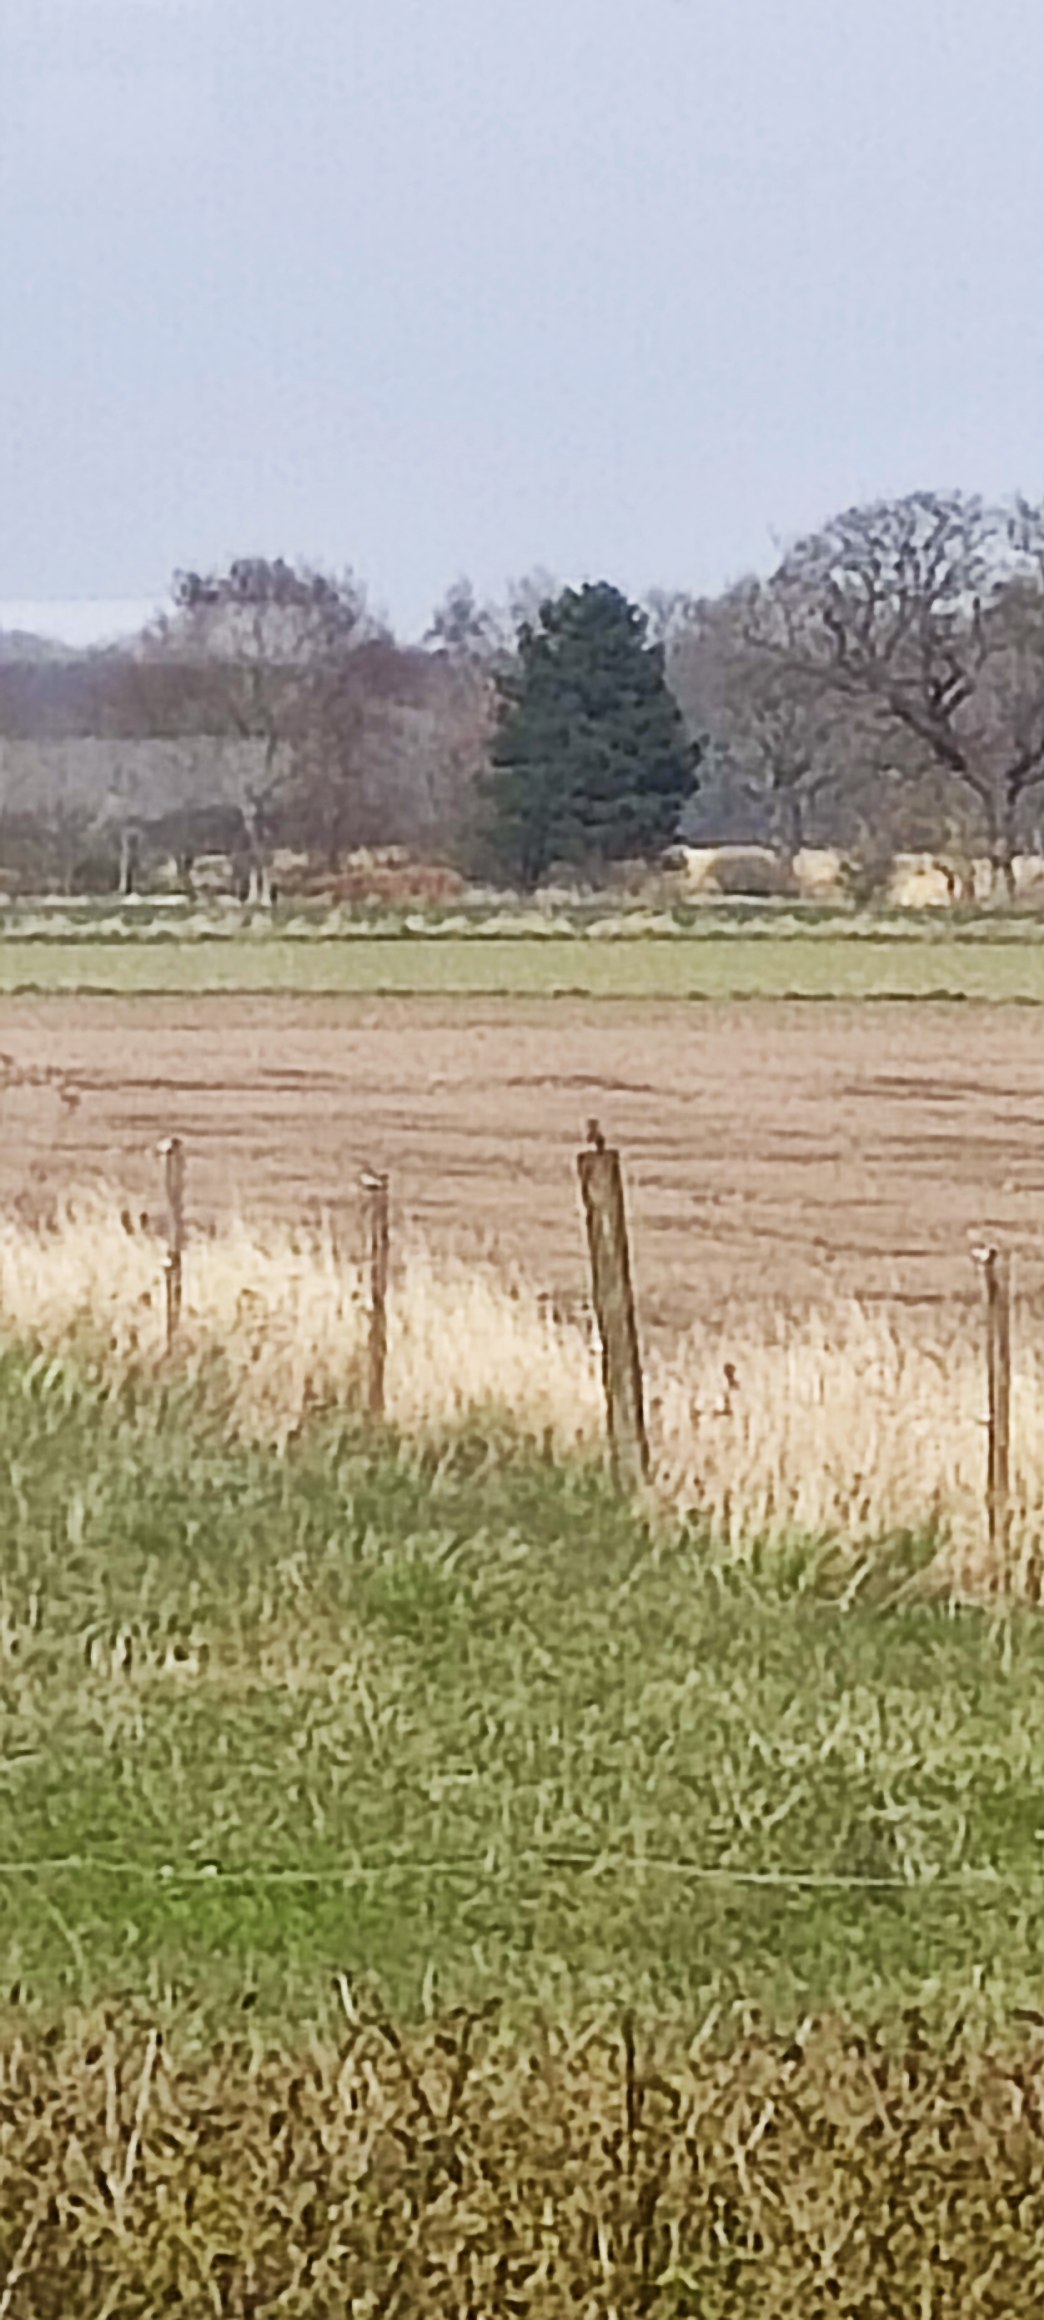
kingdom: Animalia
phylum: Chordata
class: Aves
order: Passeriformes
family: Muscicapidae
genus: Phoenicurus
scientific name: Phoenicurus phoenicurus
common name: Rødstjert
